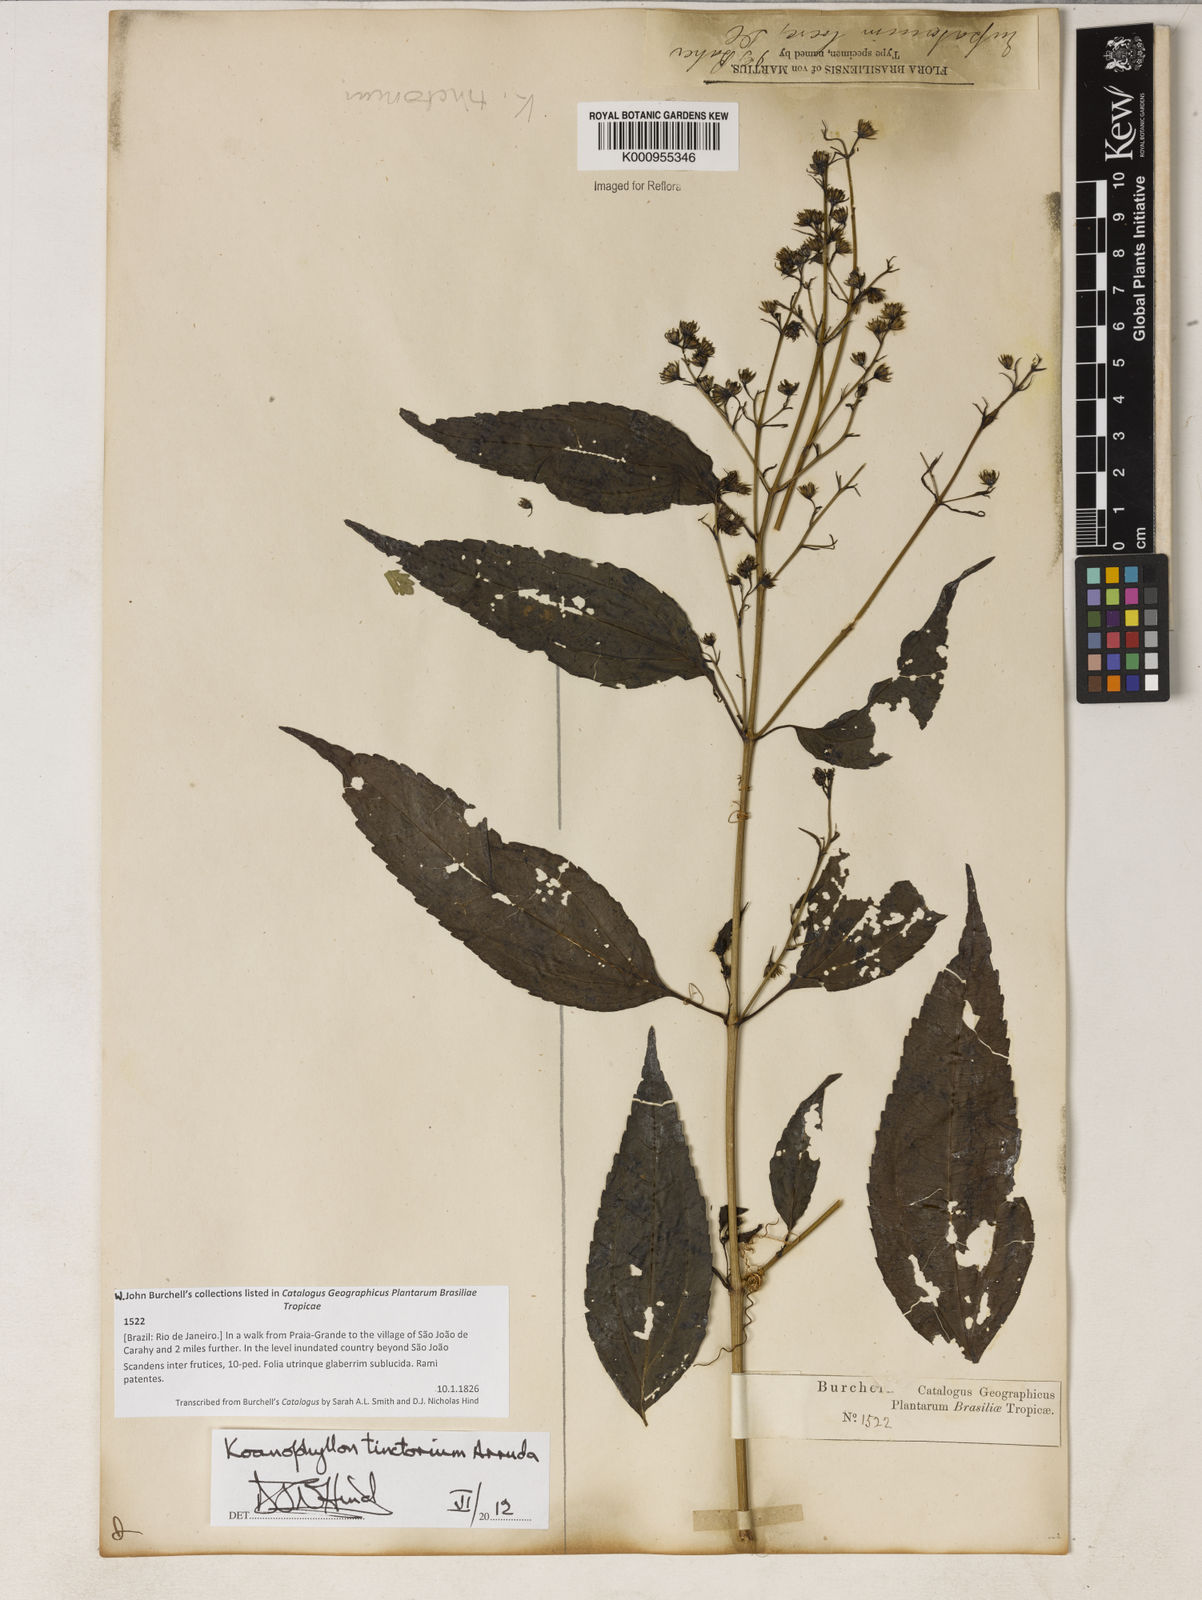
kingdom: Plantae
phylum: Tracheophyta
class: Magnoliopsida
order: Asterales
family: Asteraceae
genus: Koanophyllon
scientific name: Koanophyllon
